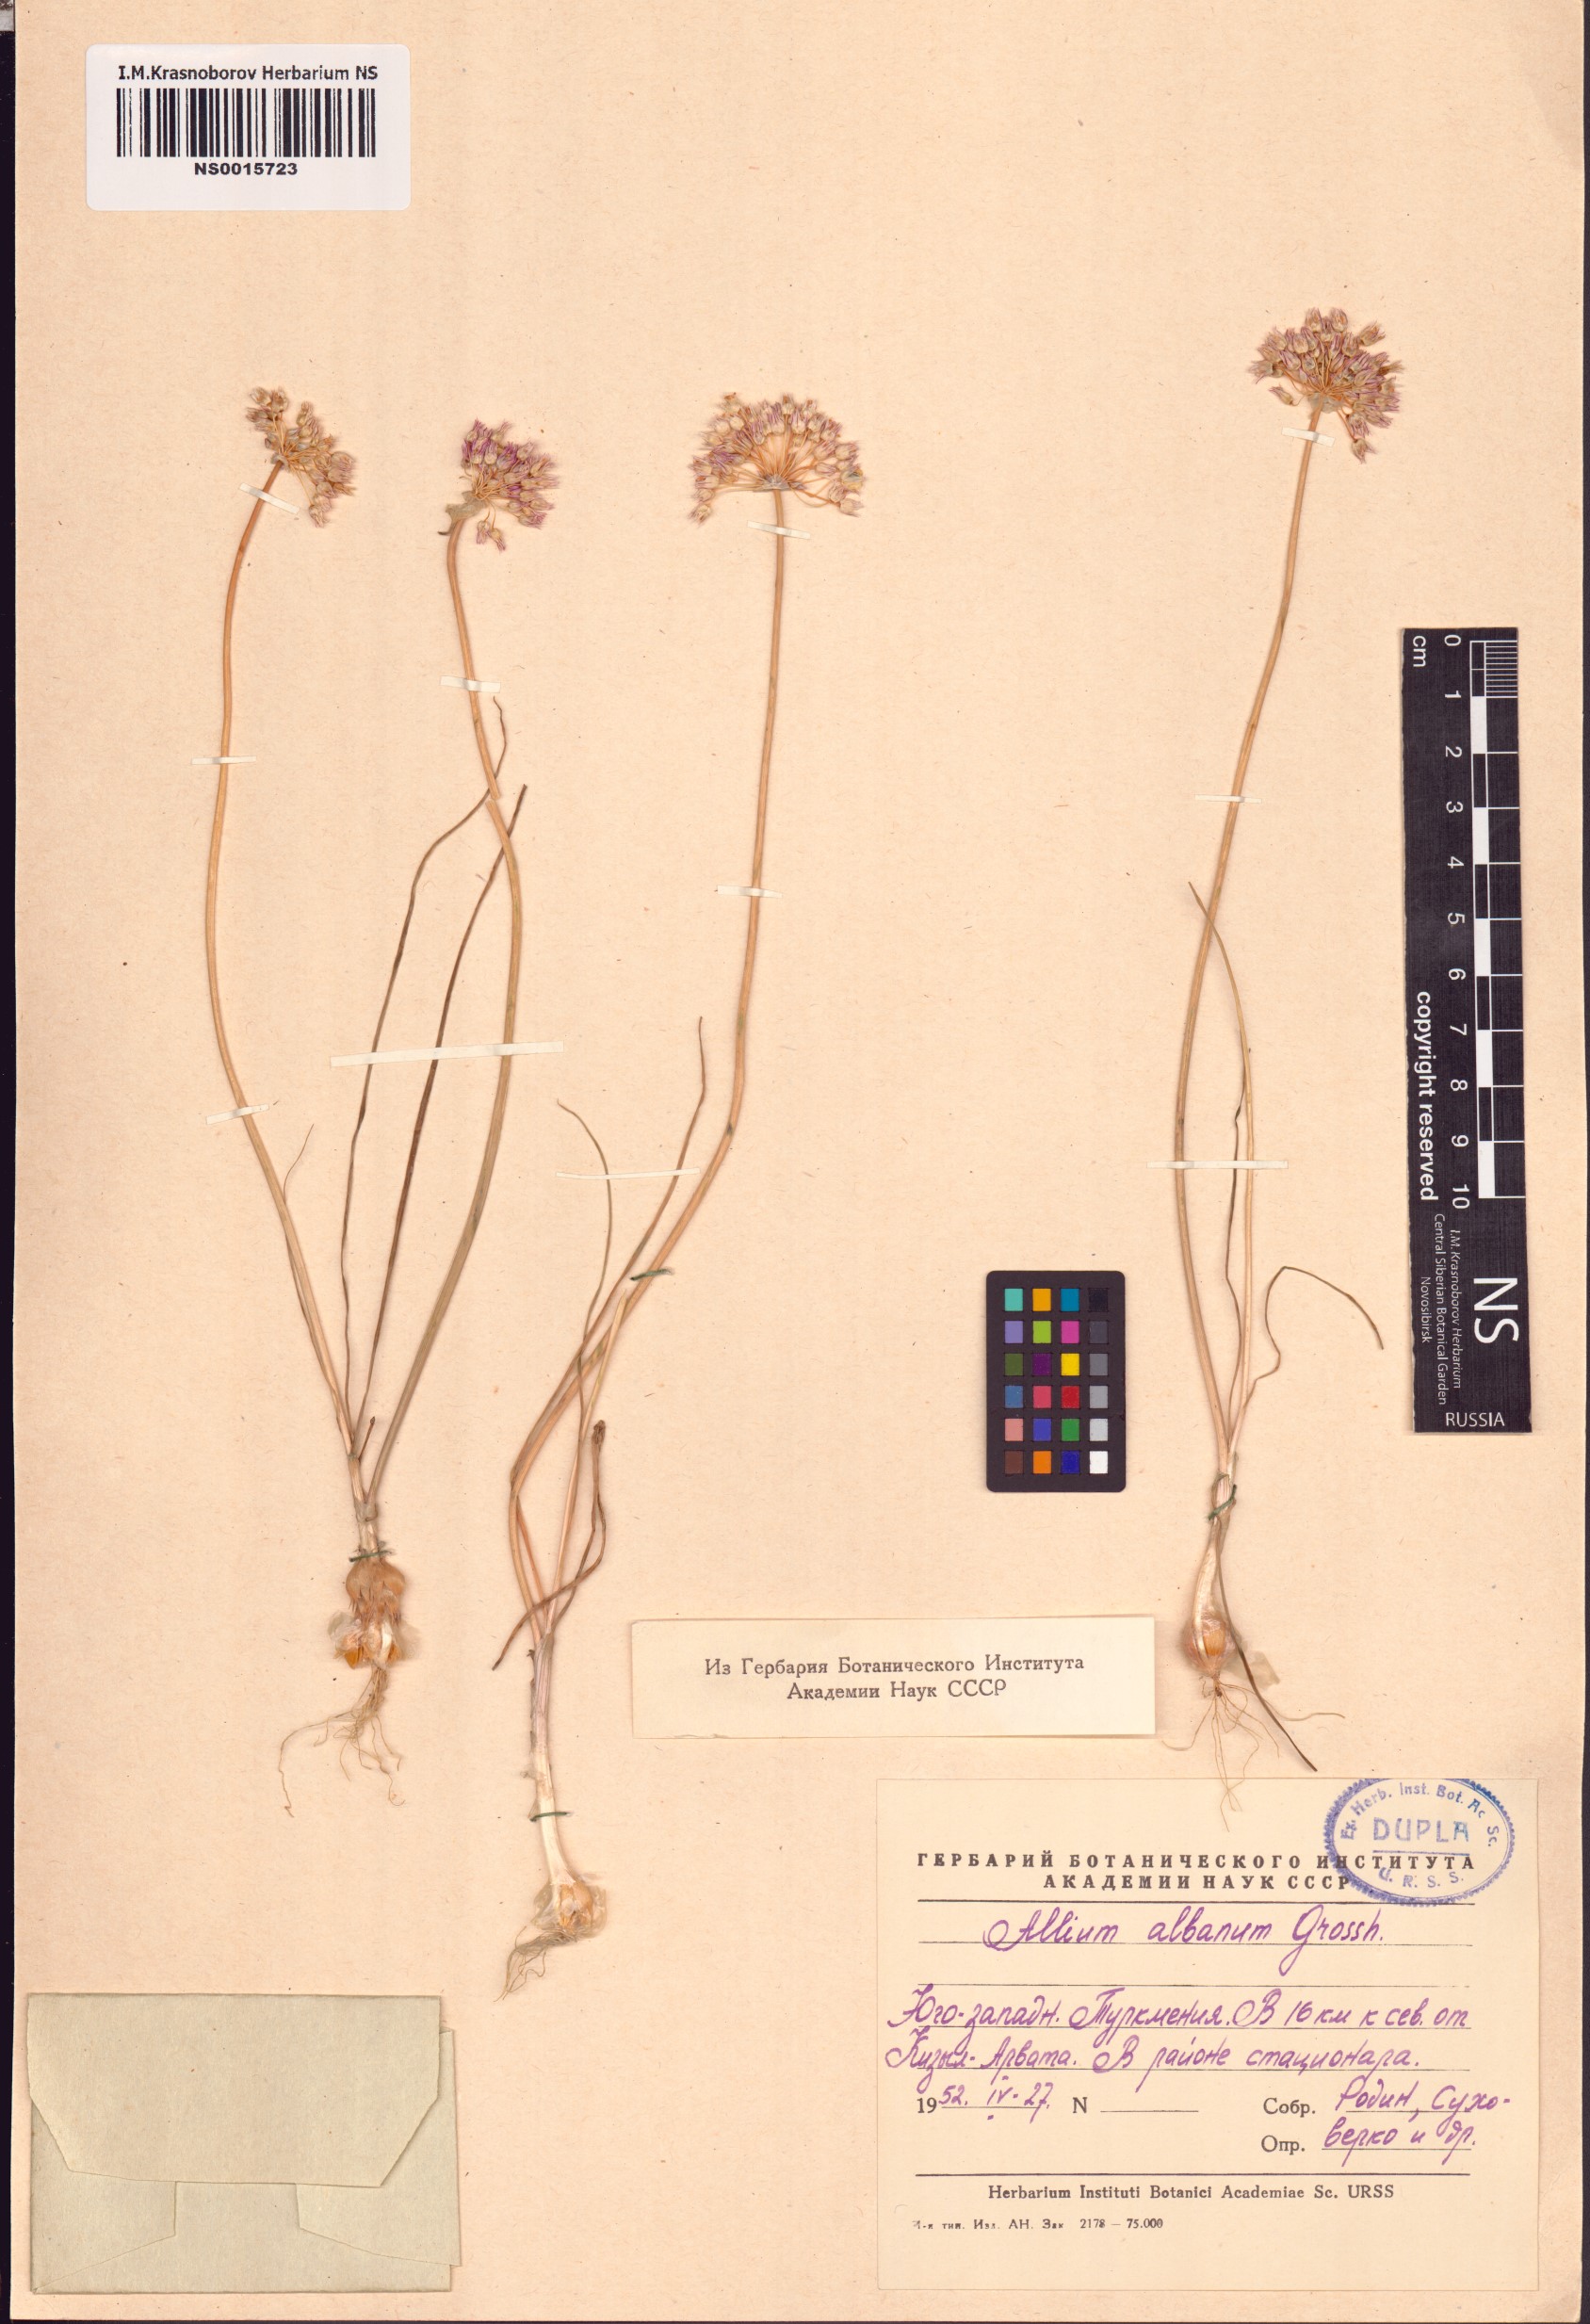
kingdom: Plantae
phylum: Tracheophyta
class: Liliopsida
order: Asparagales
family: Amaryllidaceae
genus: Allium
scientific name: Allium rubellum
